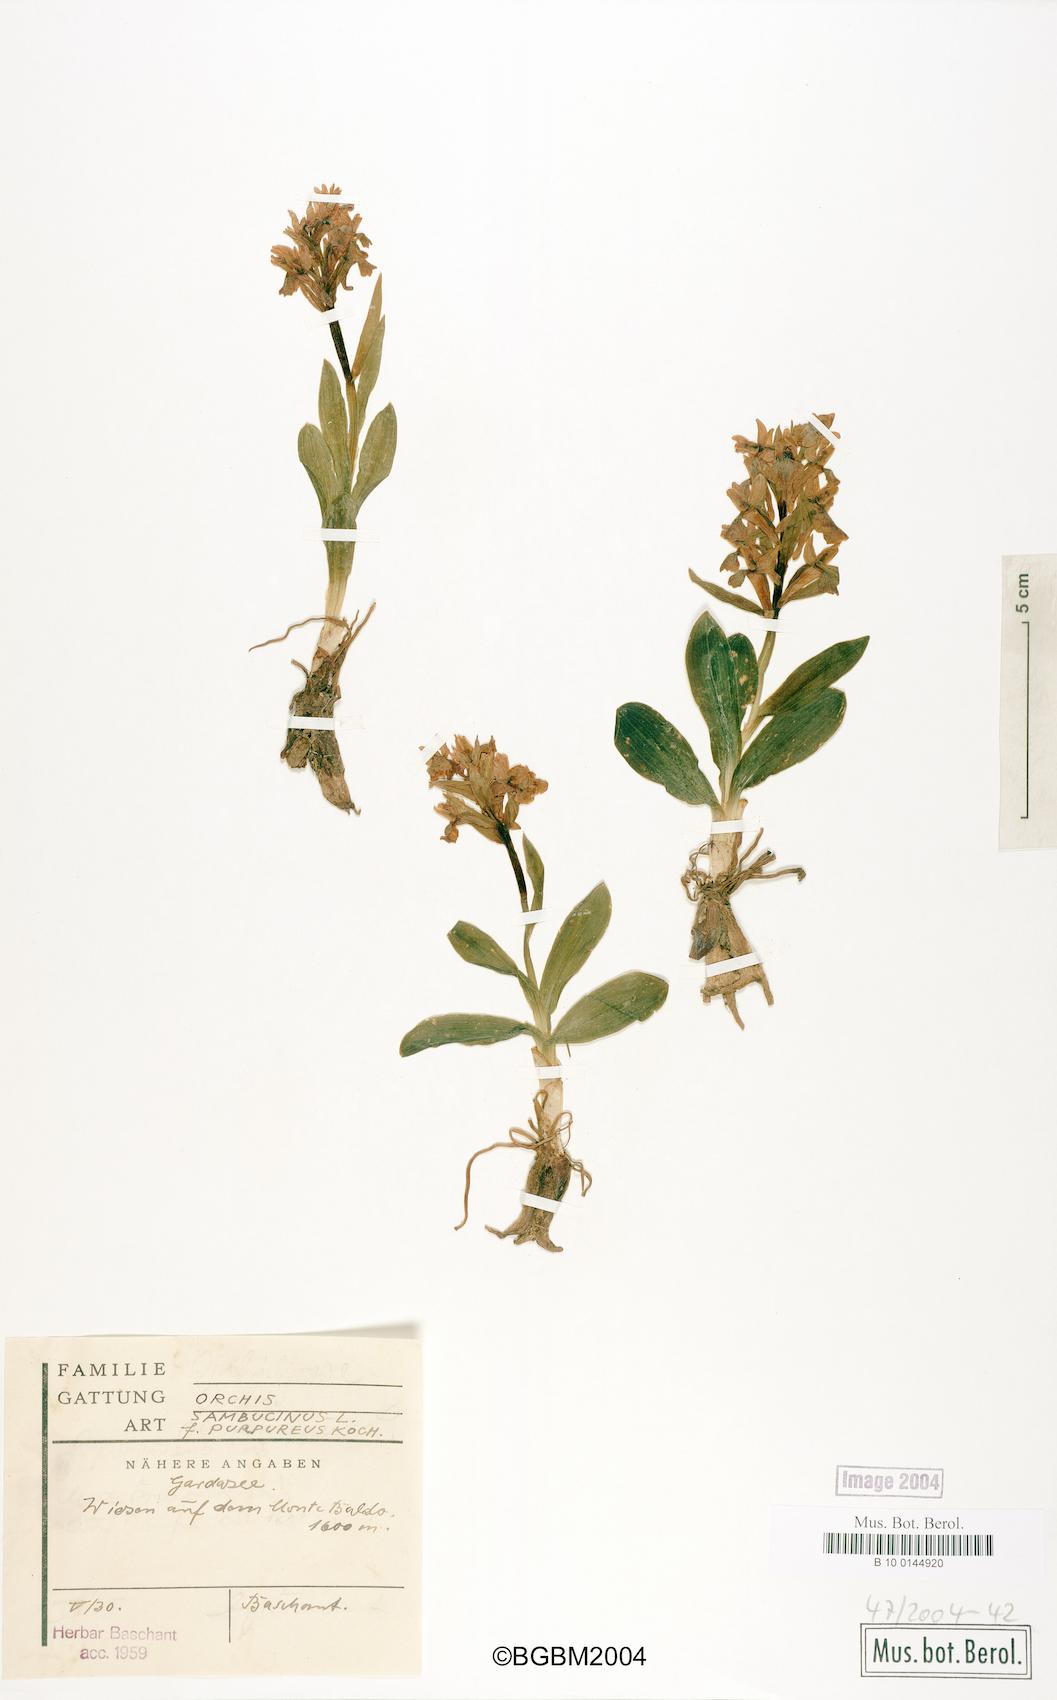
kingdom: Plantae
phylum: Tracheophyta
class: Liliopsida
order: Asparagales
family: Orchidaceae
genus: Dactylorhiza
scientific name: Dactylorhiza sambucina
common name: Elder-flowered orchid
